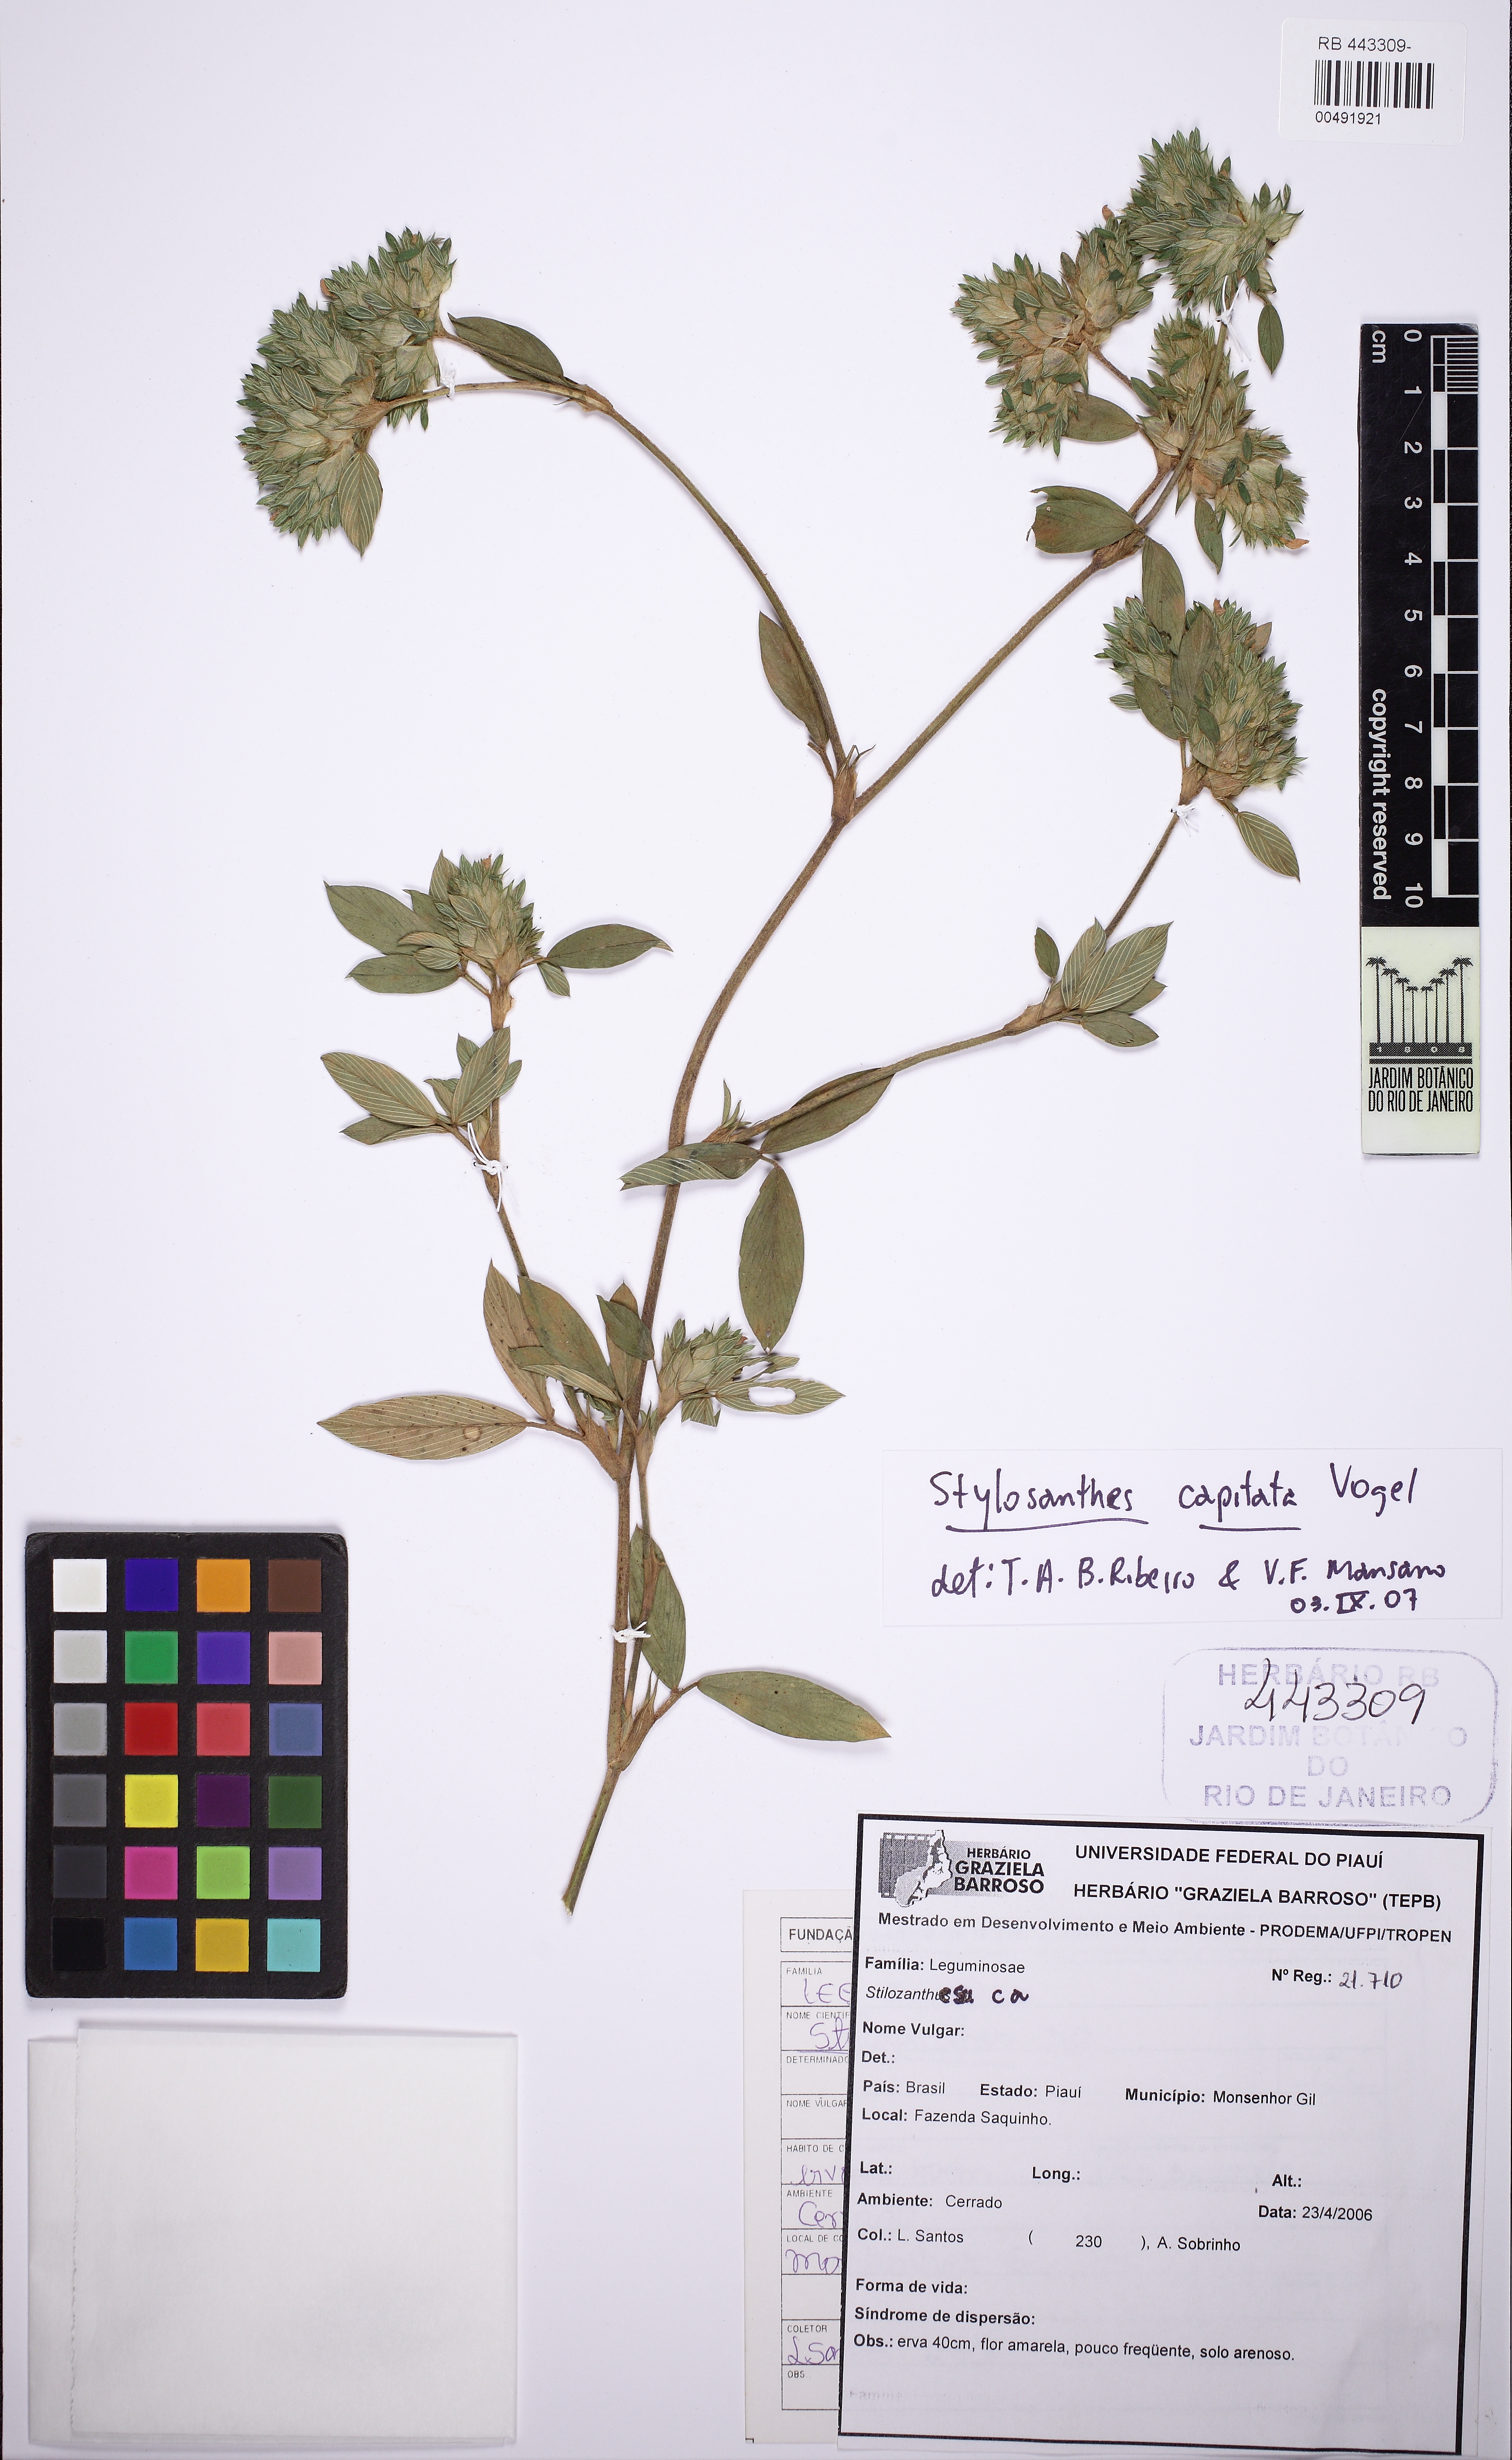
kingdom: Plantae
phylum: Tracheophyta
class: Magnoliopsida
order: Fabales
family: Fabaceae
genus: Stylosanthes
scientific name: Stylosanthes capitata
